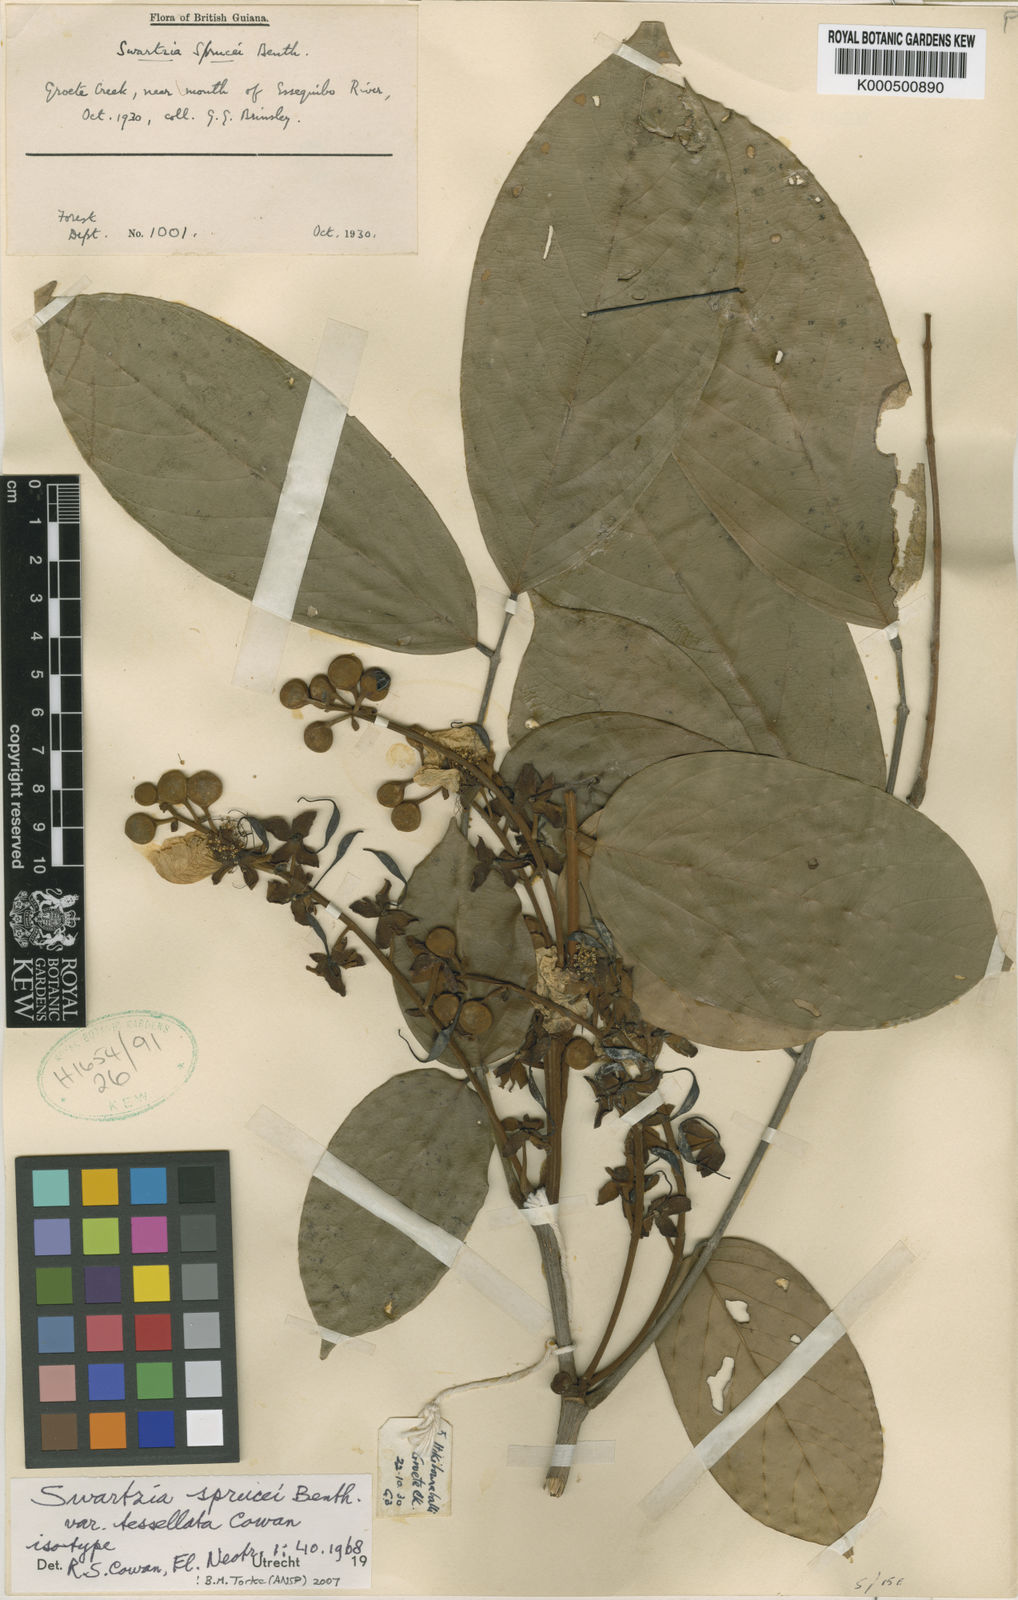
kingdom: Plantae
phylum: Tracheophyta
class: Magnoliopsida
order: Fabales
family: Fabaceae
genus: Swartzia
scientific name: Swartzia sprucei
